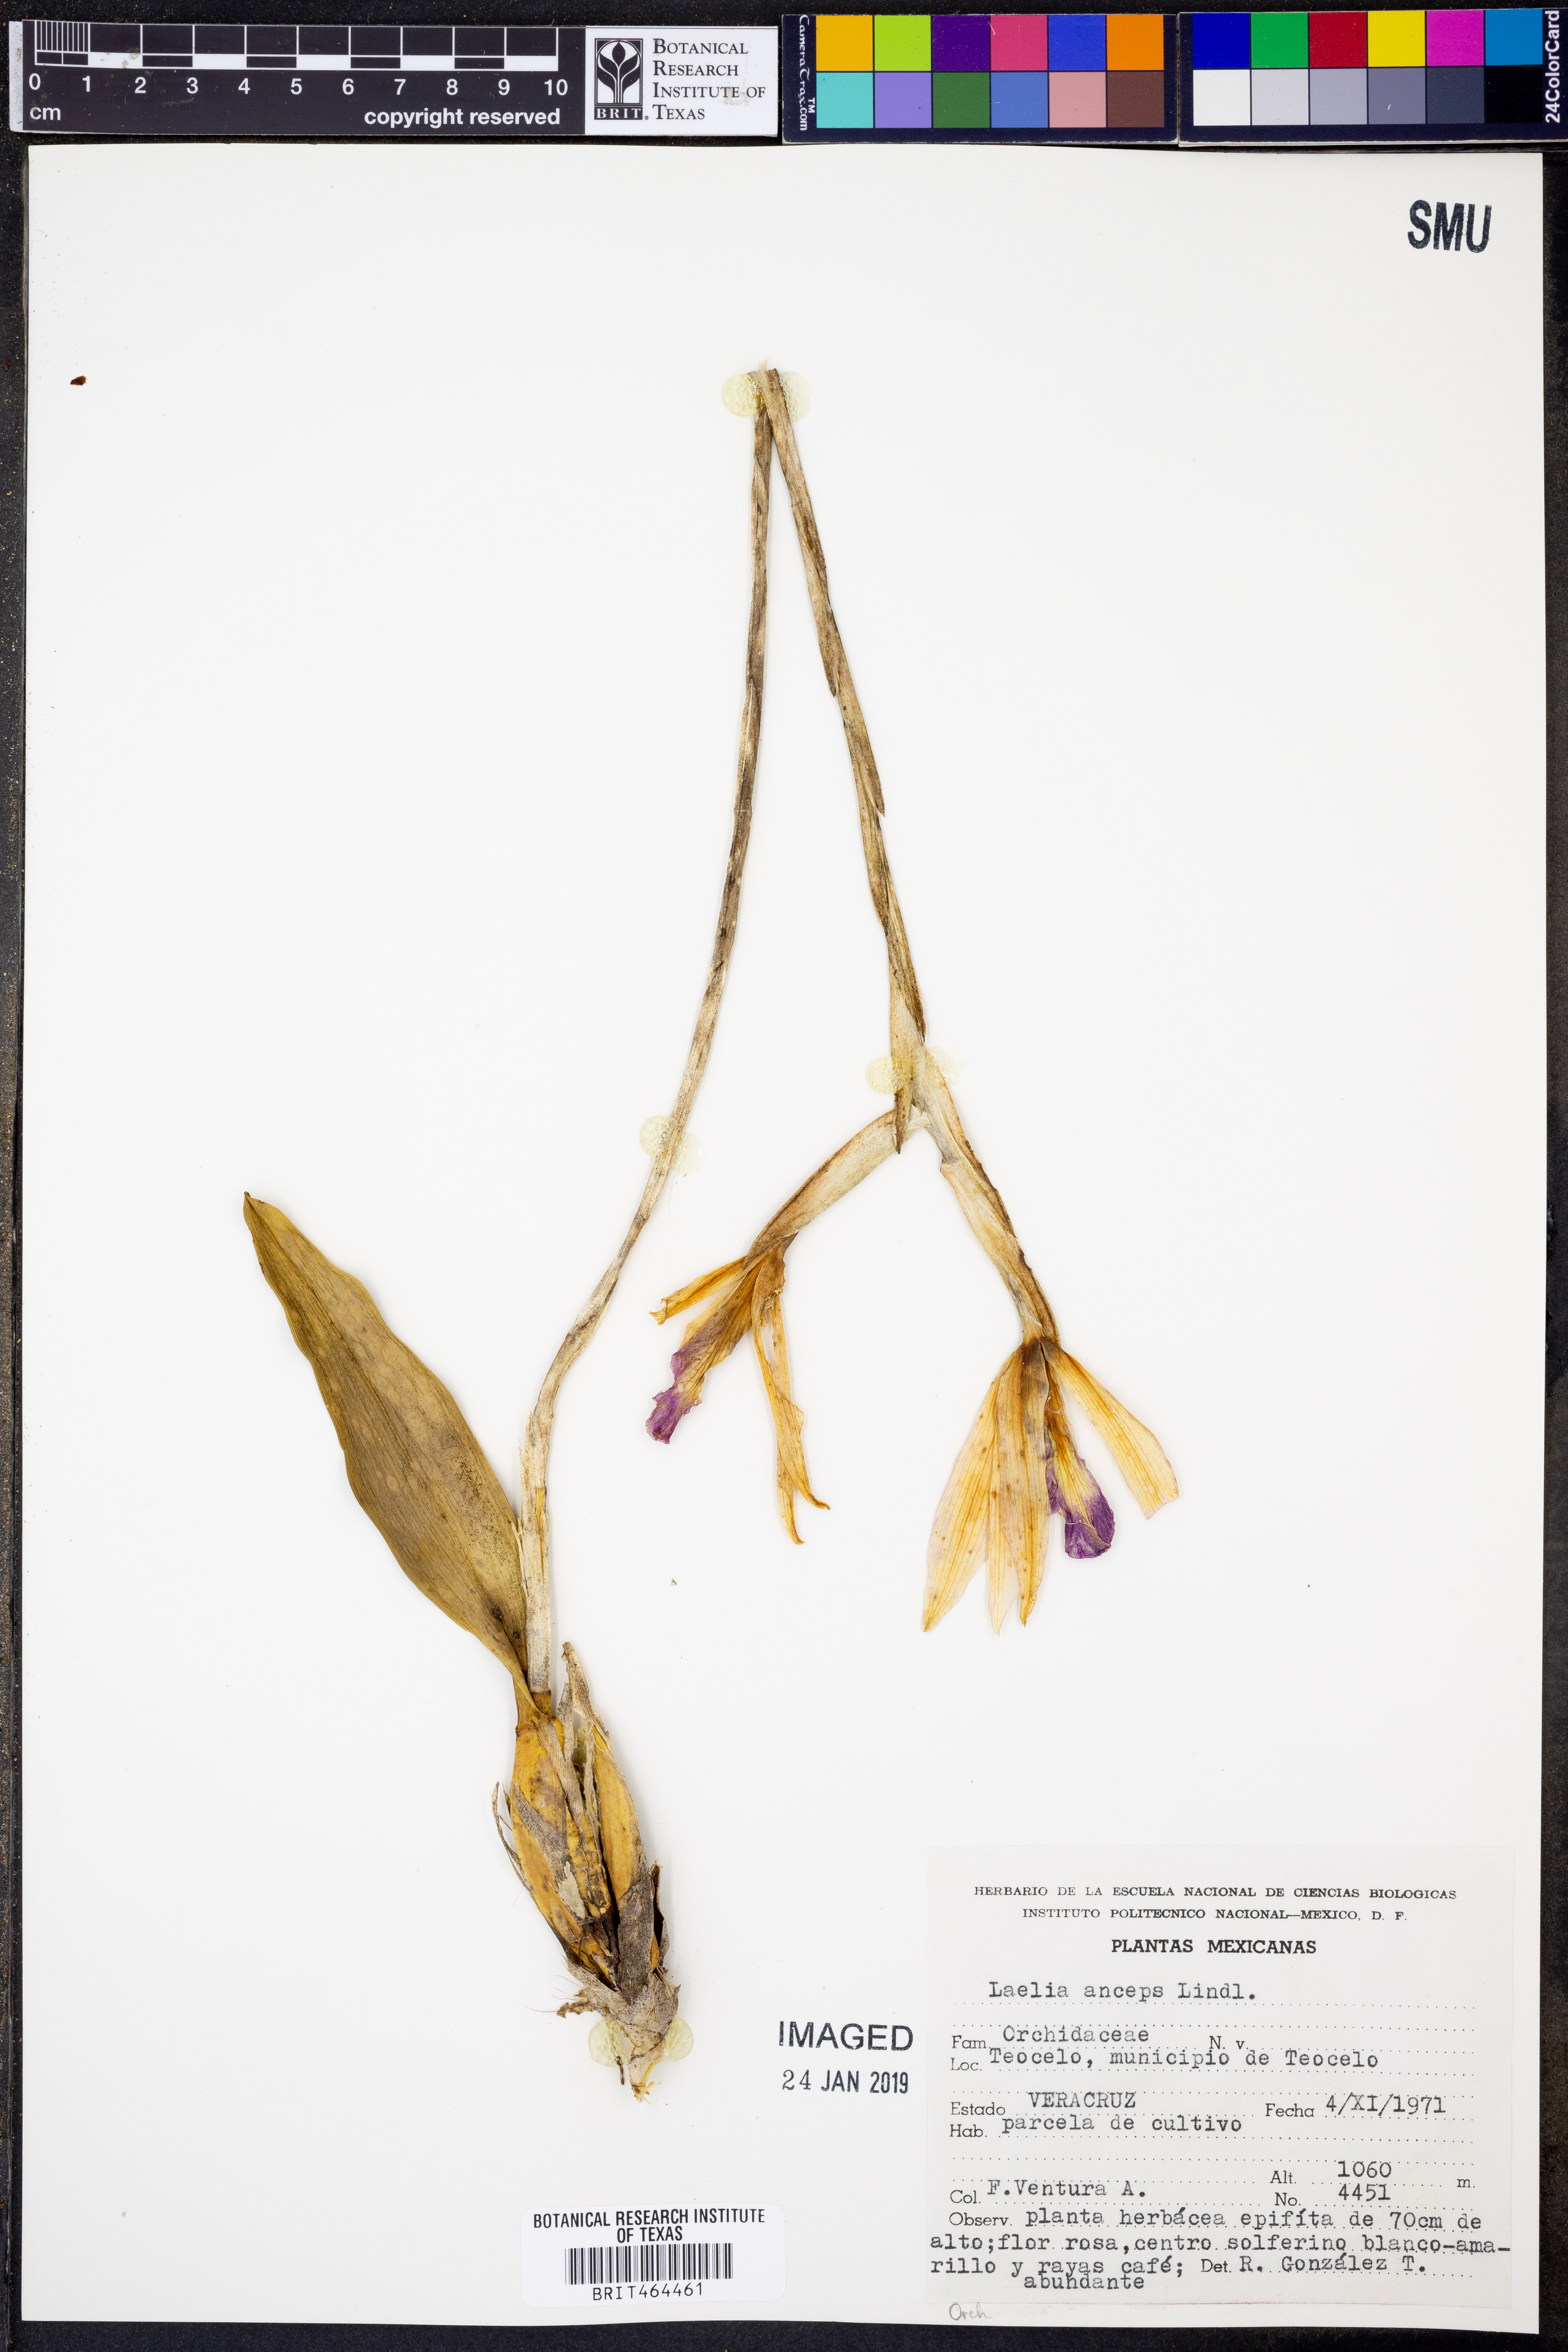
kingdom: Plantae
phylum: Tracheophyta
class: Liliopsida
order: Asparagales
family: Orchidaceae
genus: Laelia
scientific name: Laelia anceps
